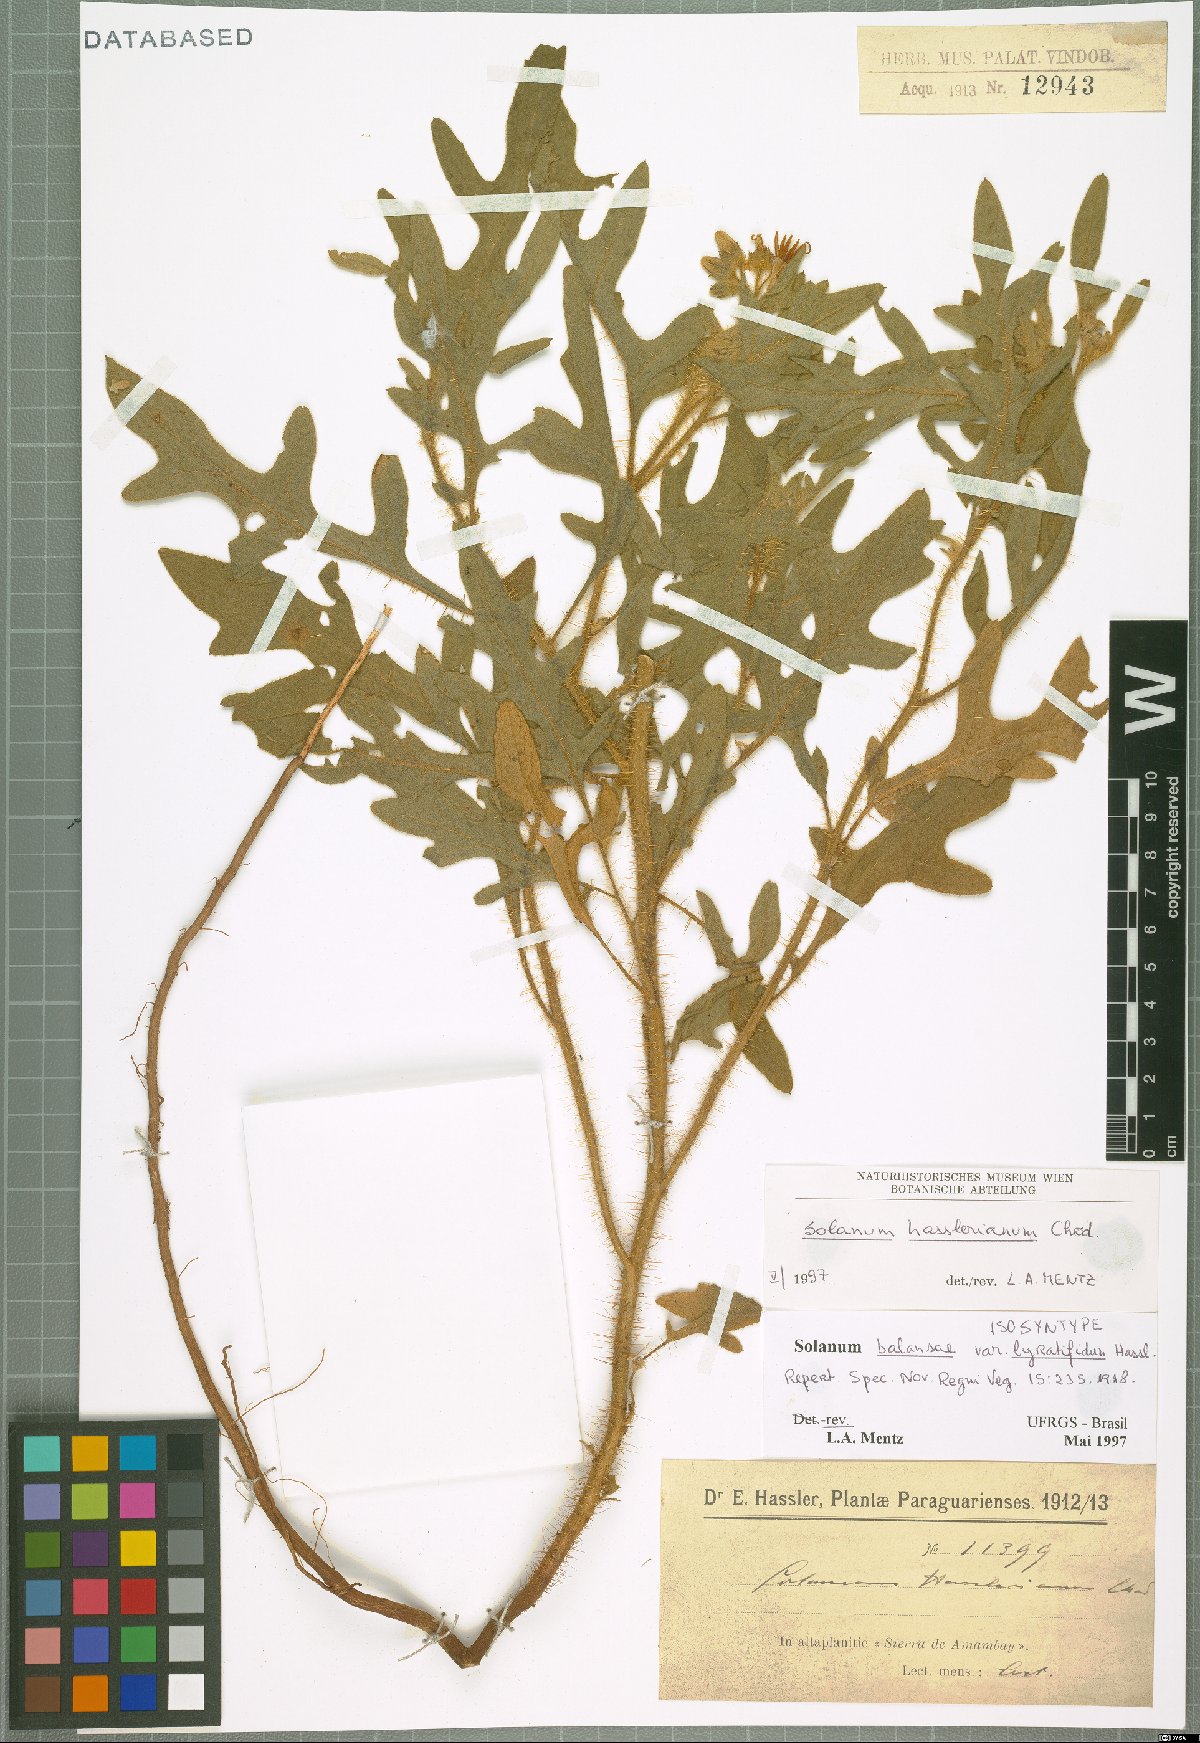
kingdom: Plantae
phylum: Tracheophyta
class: Magnoliopsida
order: Solanales
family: Solanaceae
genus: Solanum
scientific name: Solanum hasslerianum
